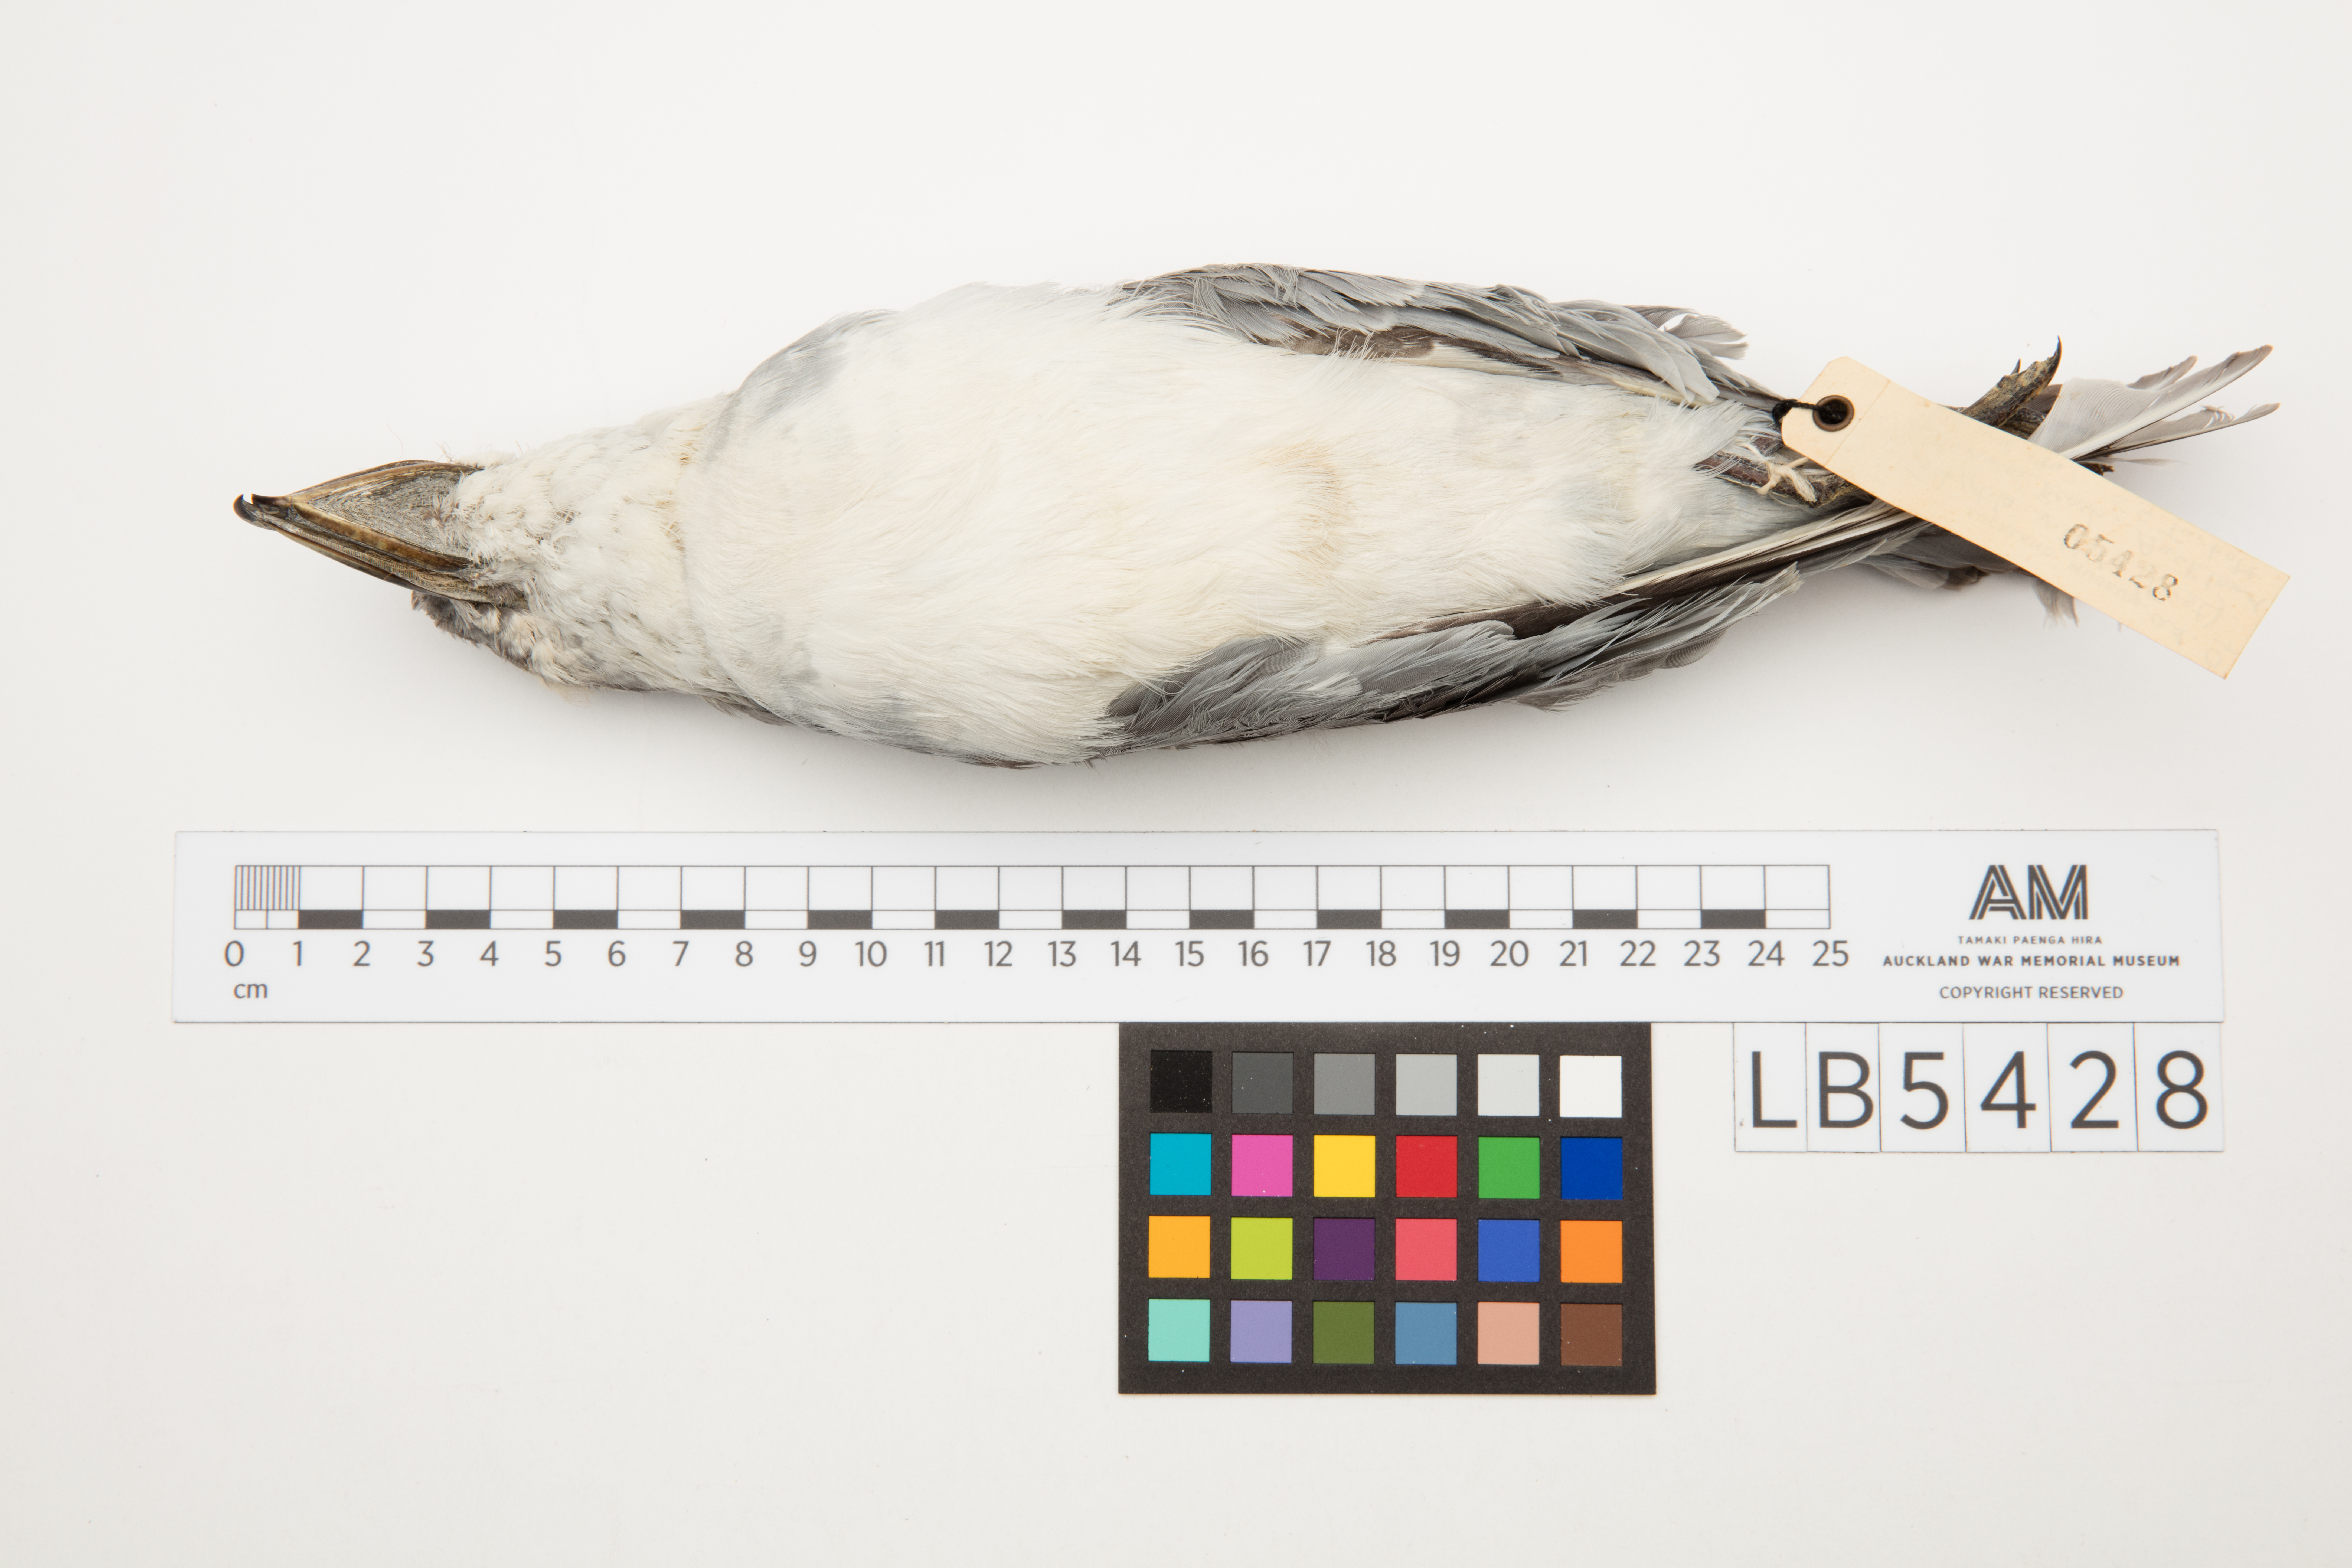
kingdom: Animalia
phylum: Chordata
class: Aves
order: Procellariiformes
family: Procellariidae
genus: Pachyptila
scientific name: Pachyptila vittata
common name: Broad-billed prion
